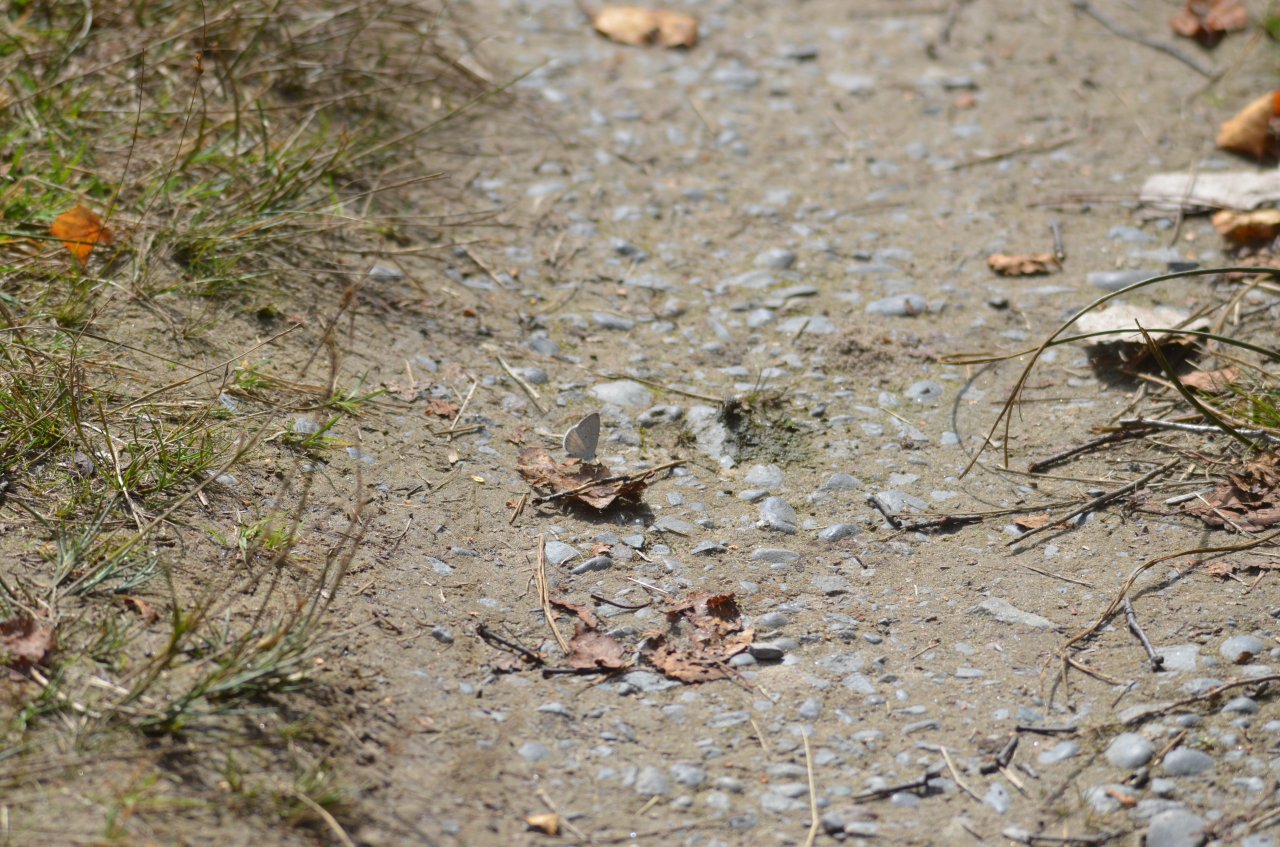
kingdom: Animalia
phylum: Arthropoda
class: Insecta
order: Lepidoptera
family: Lycaenidae
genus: Cyaniris
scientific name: Cyaniris neglecta
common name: Summer Azure
